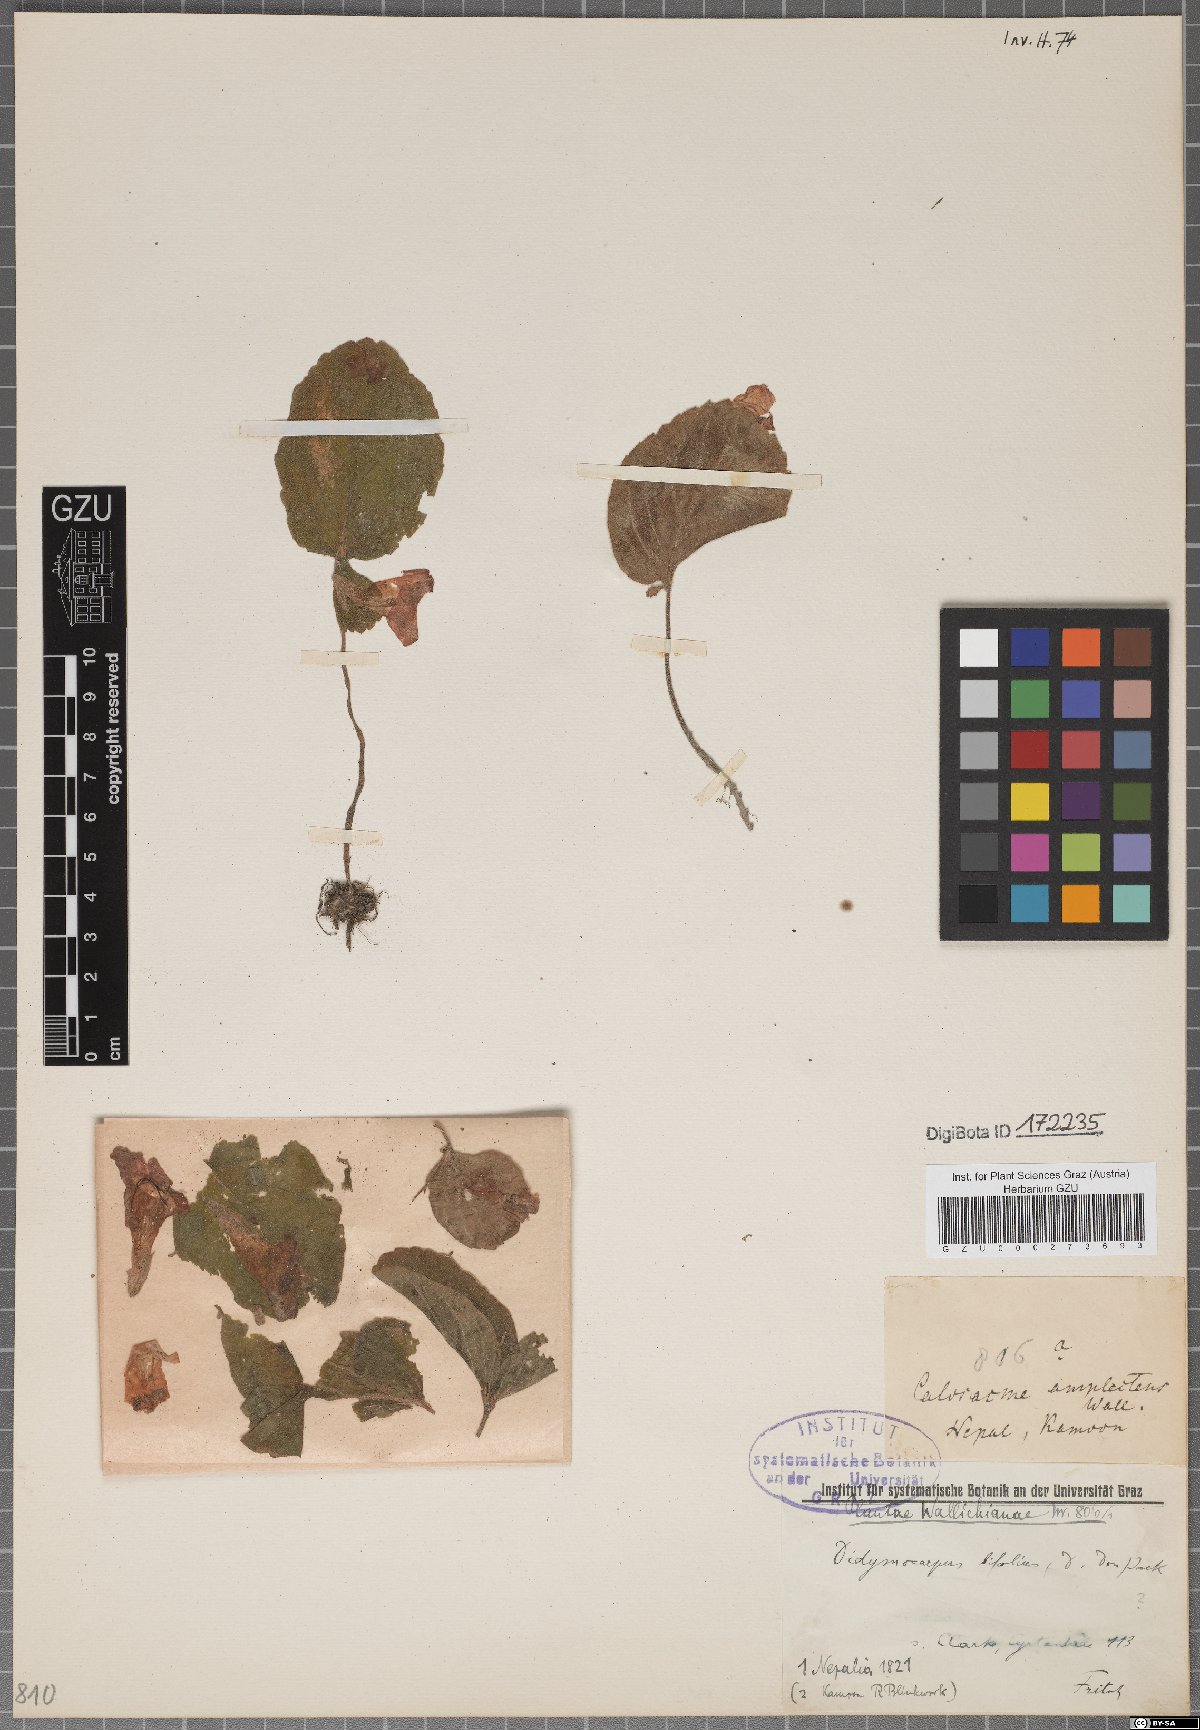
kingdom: Plantae
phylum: Tracheophyta
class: Magnoliopsida
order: Lamiales
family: Gesneriaceae
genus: Henckelia
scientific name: Henckelia bifolia
